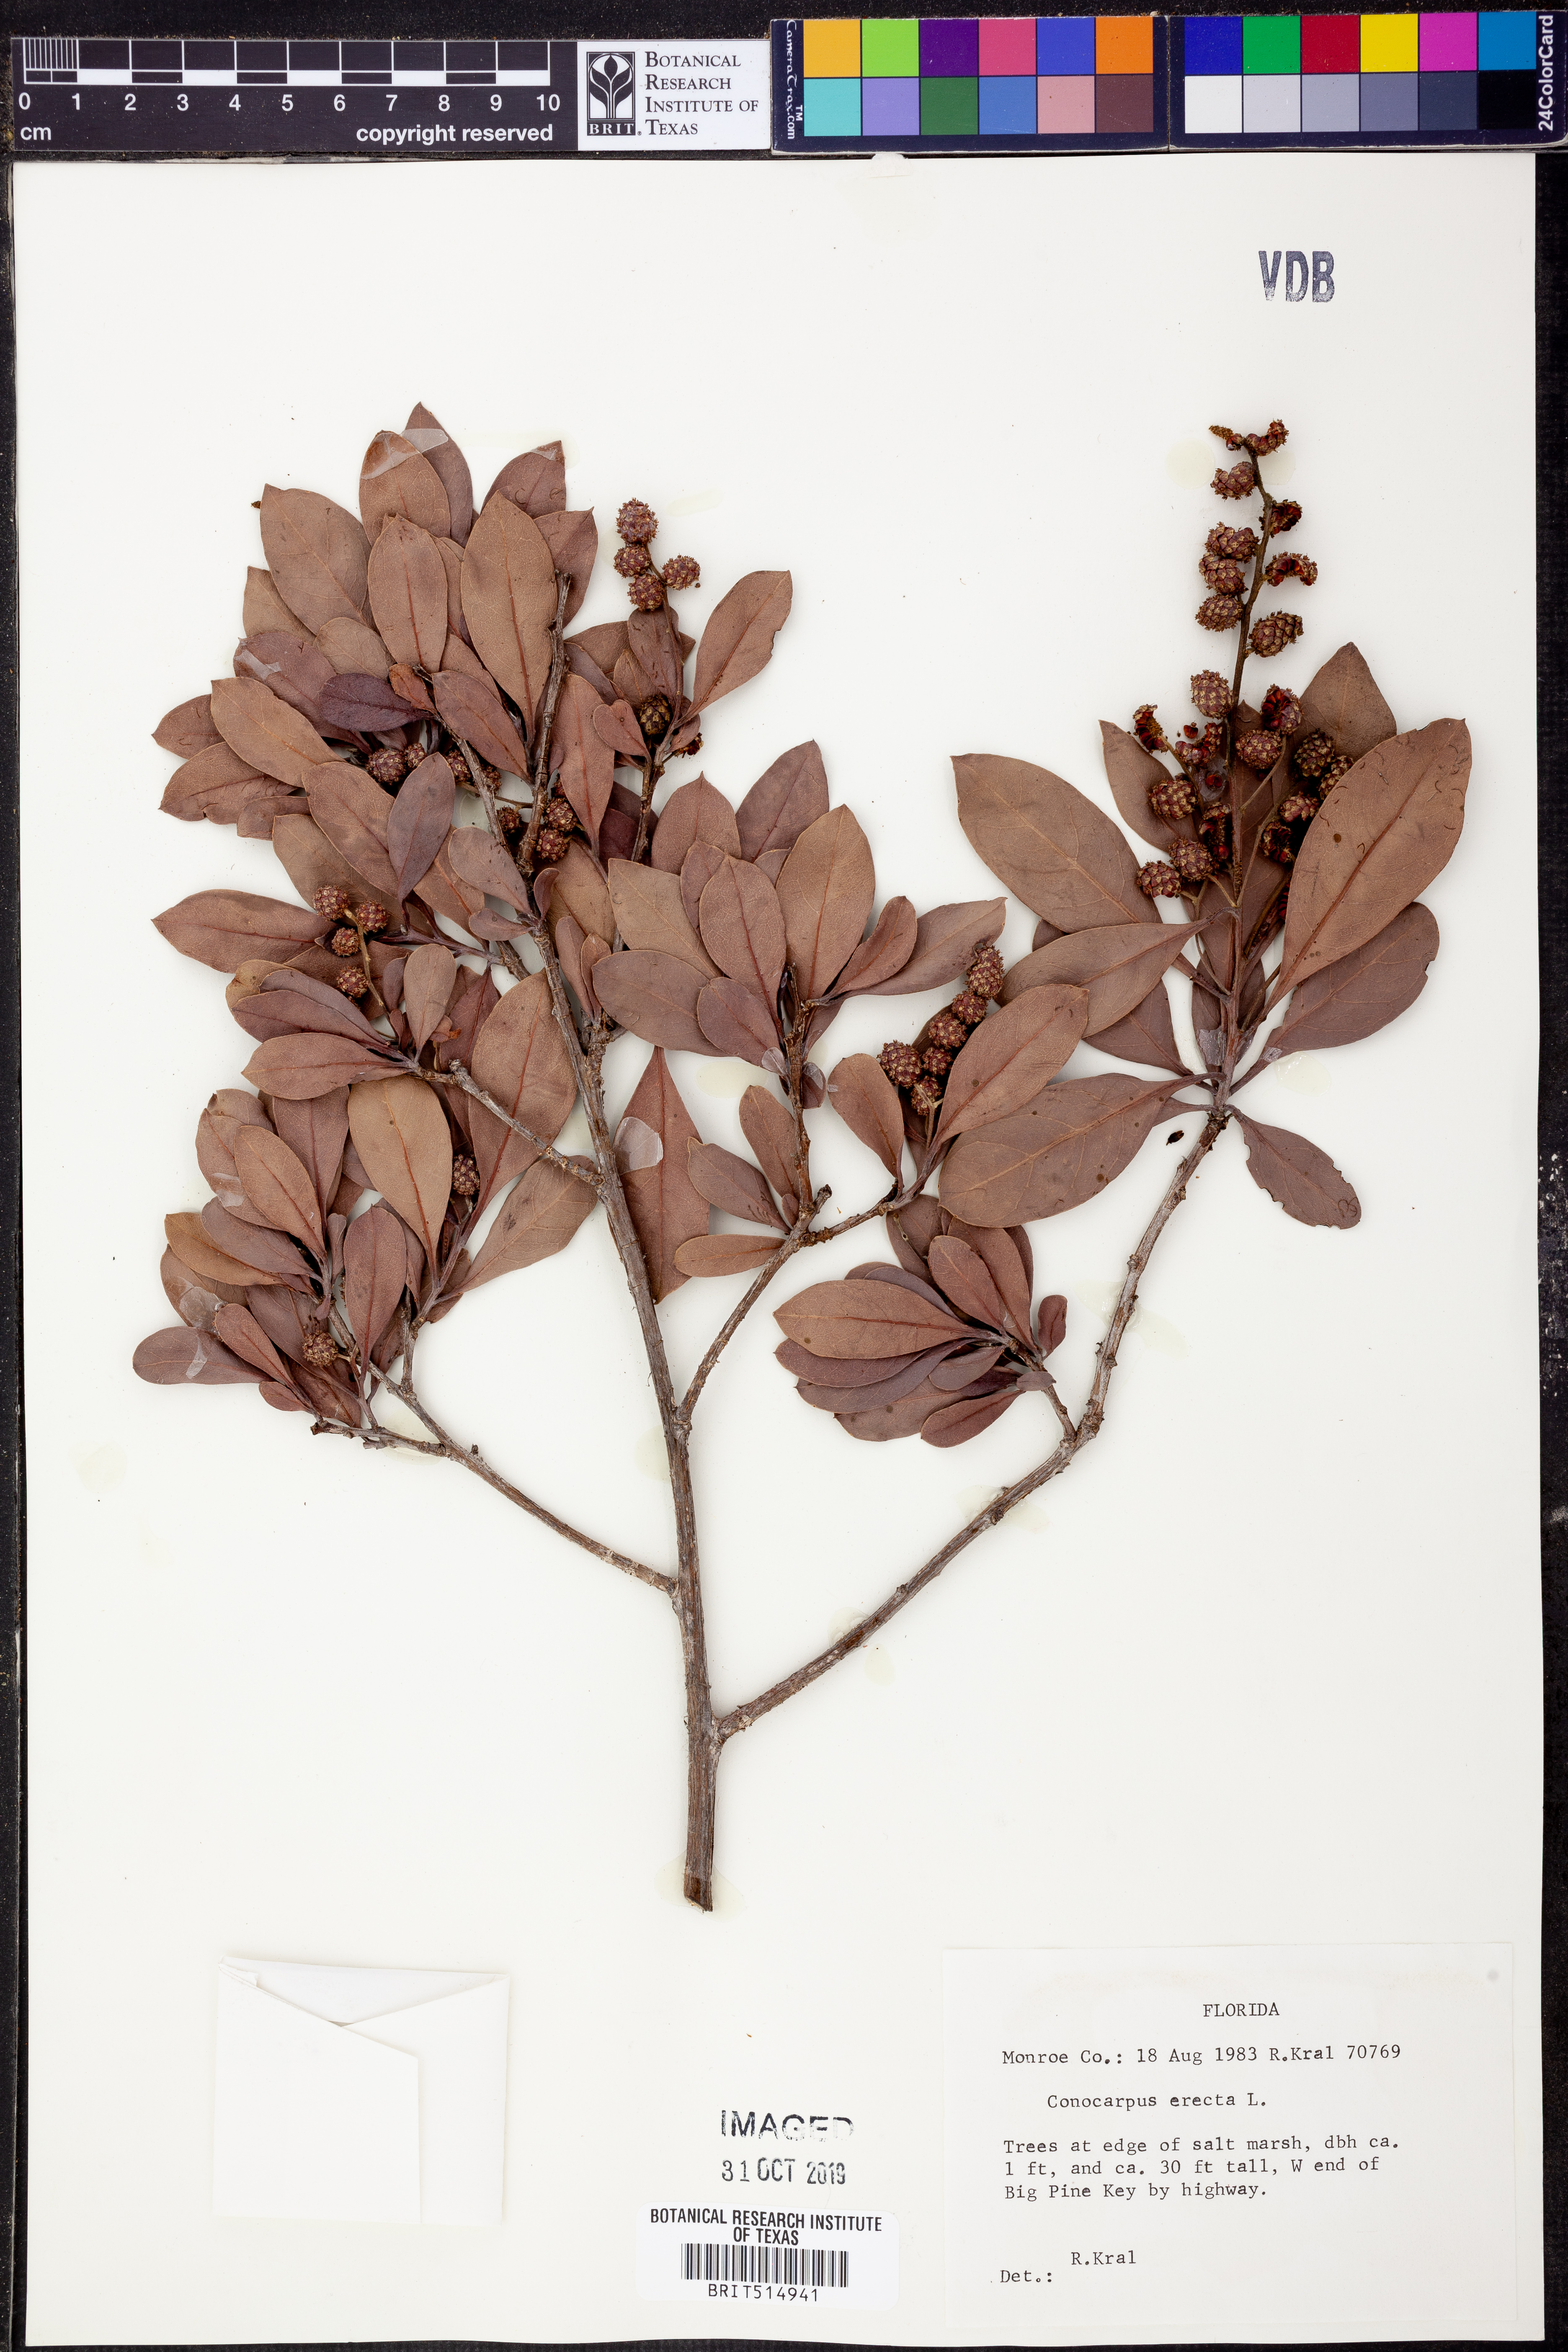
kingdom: Plantae
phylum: Tracheophyta
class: Magnoliopsida
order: Myrtales
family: Combretaceae
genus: Conocarpus
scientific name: Conocarpus erectus
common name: Button mangrove
